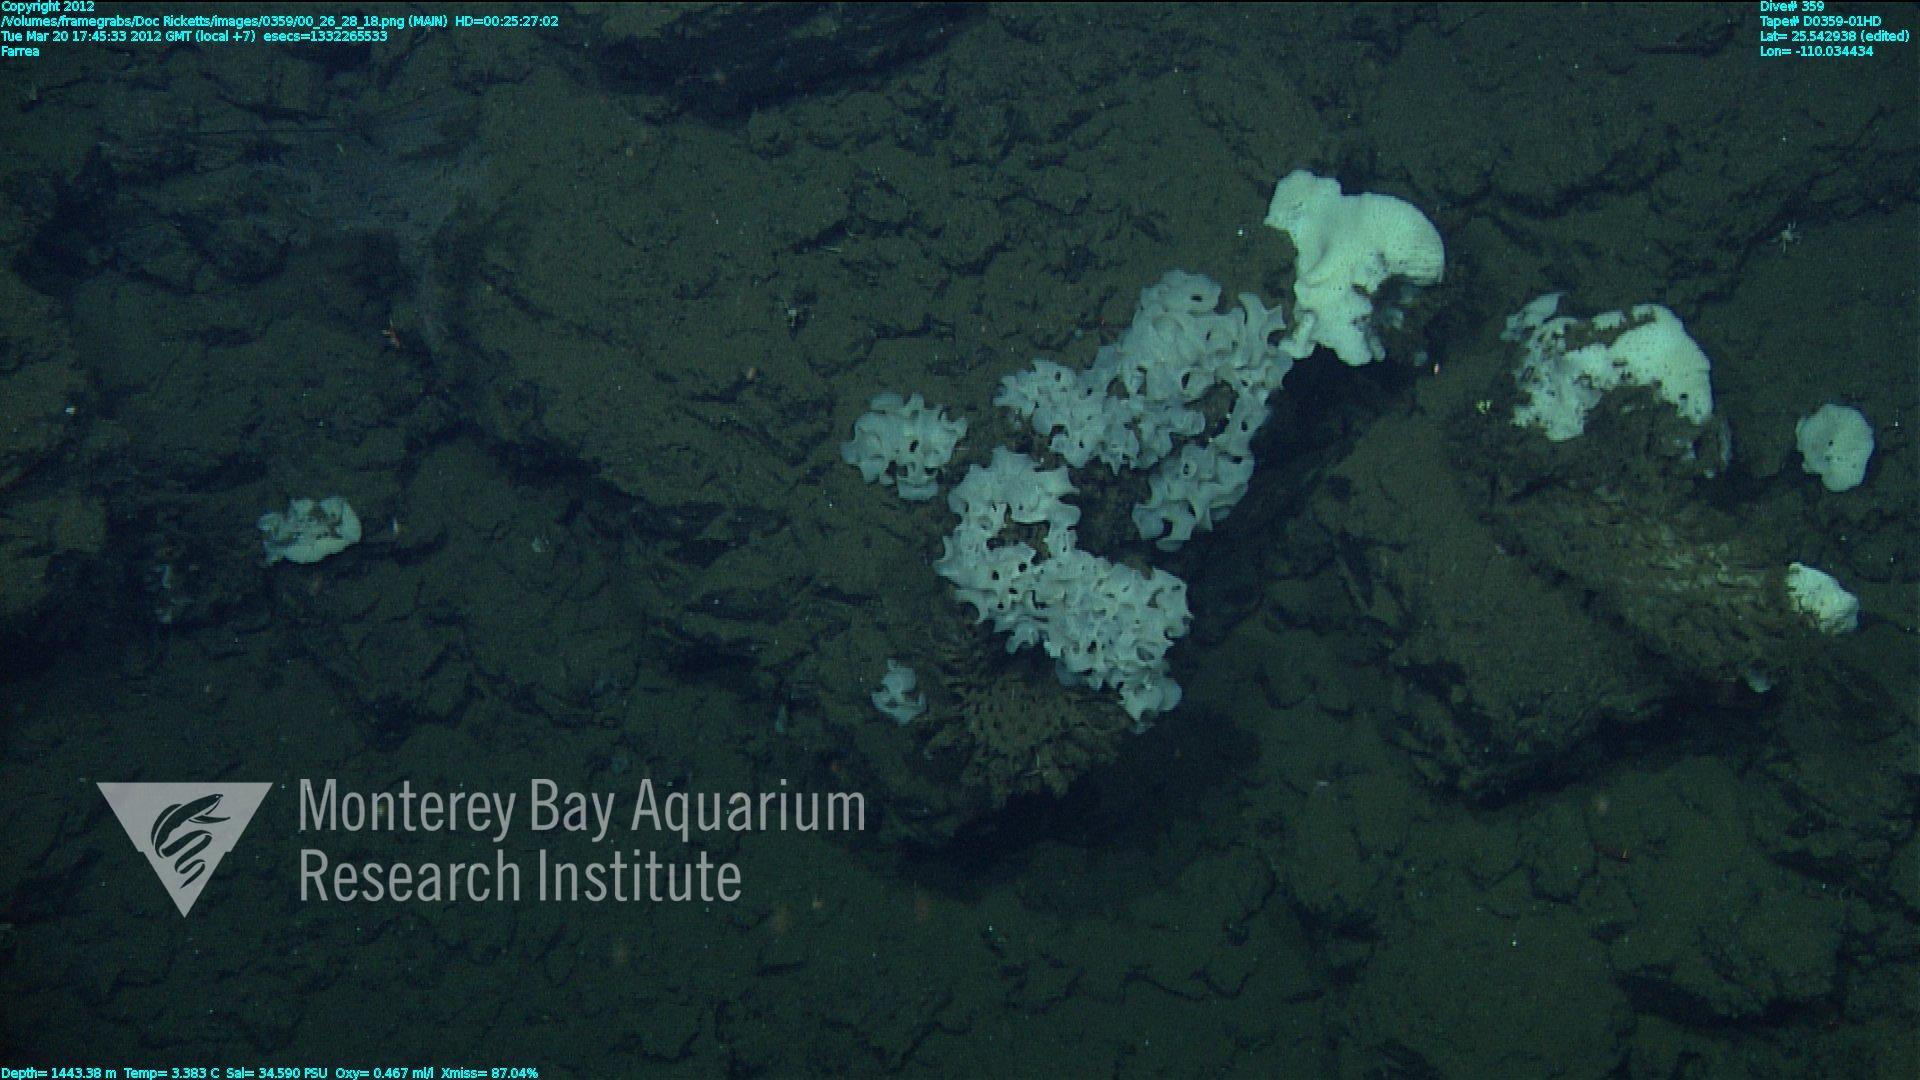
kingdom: Animalia
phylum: Porifera
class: Hexactinellida
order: Sceptrulophora
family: Farreidae
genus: Farrea
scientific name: Farrea
